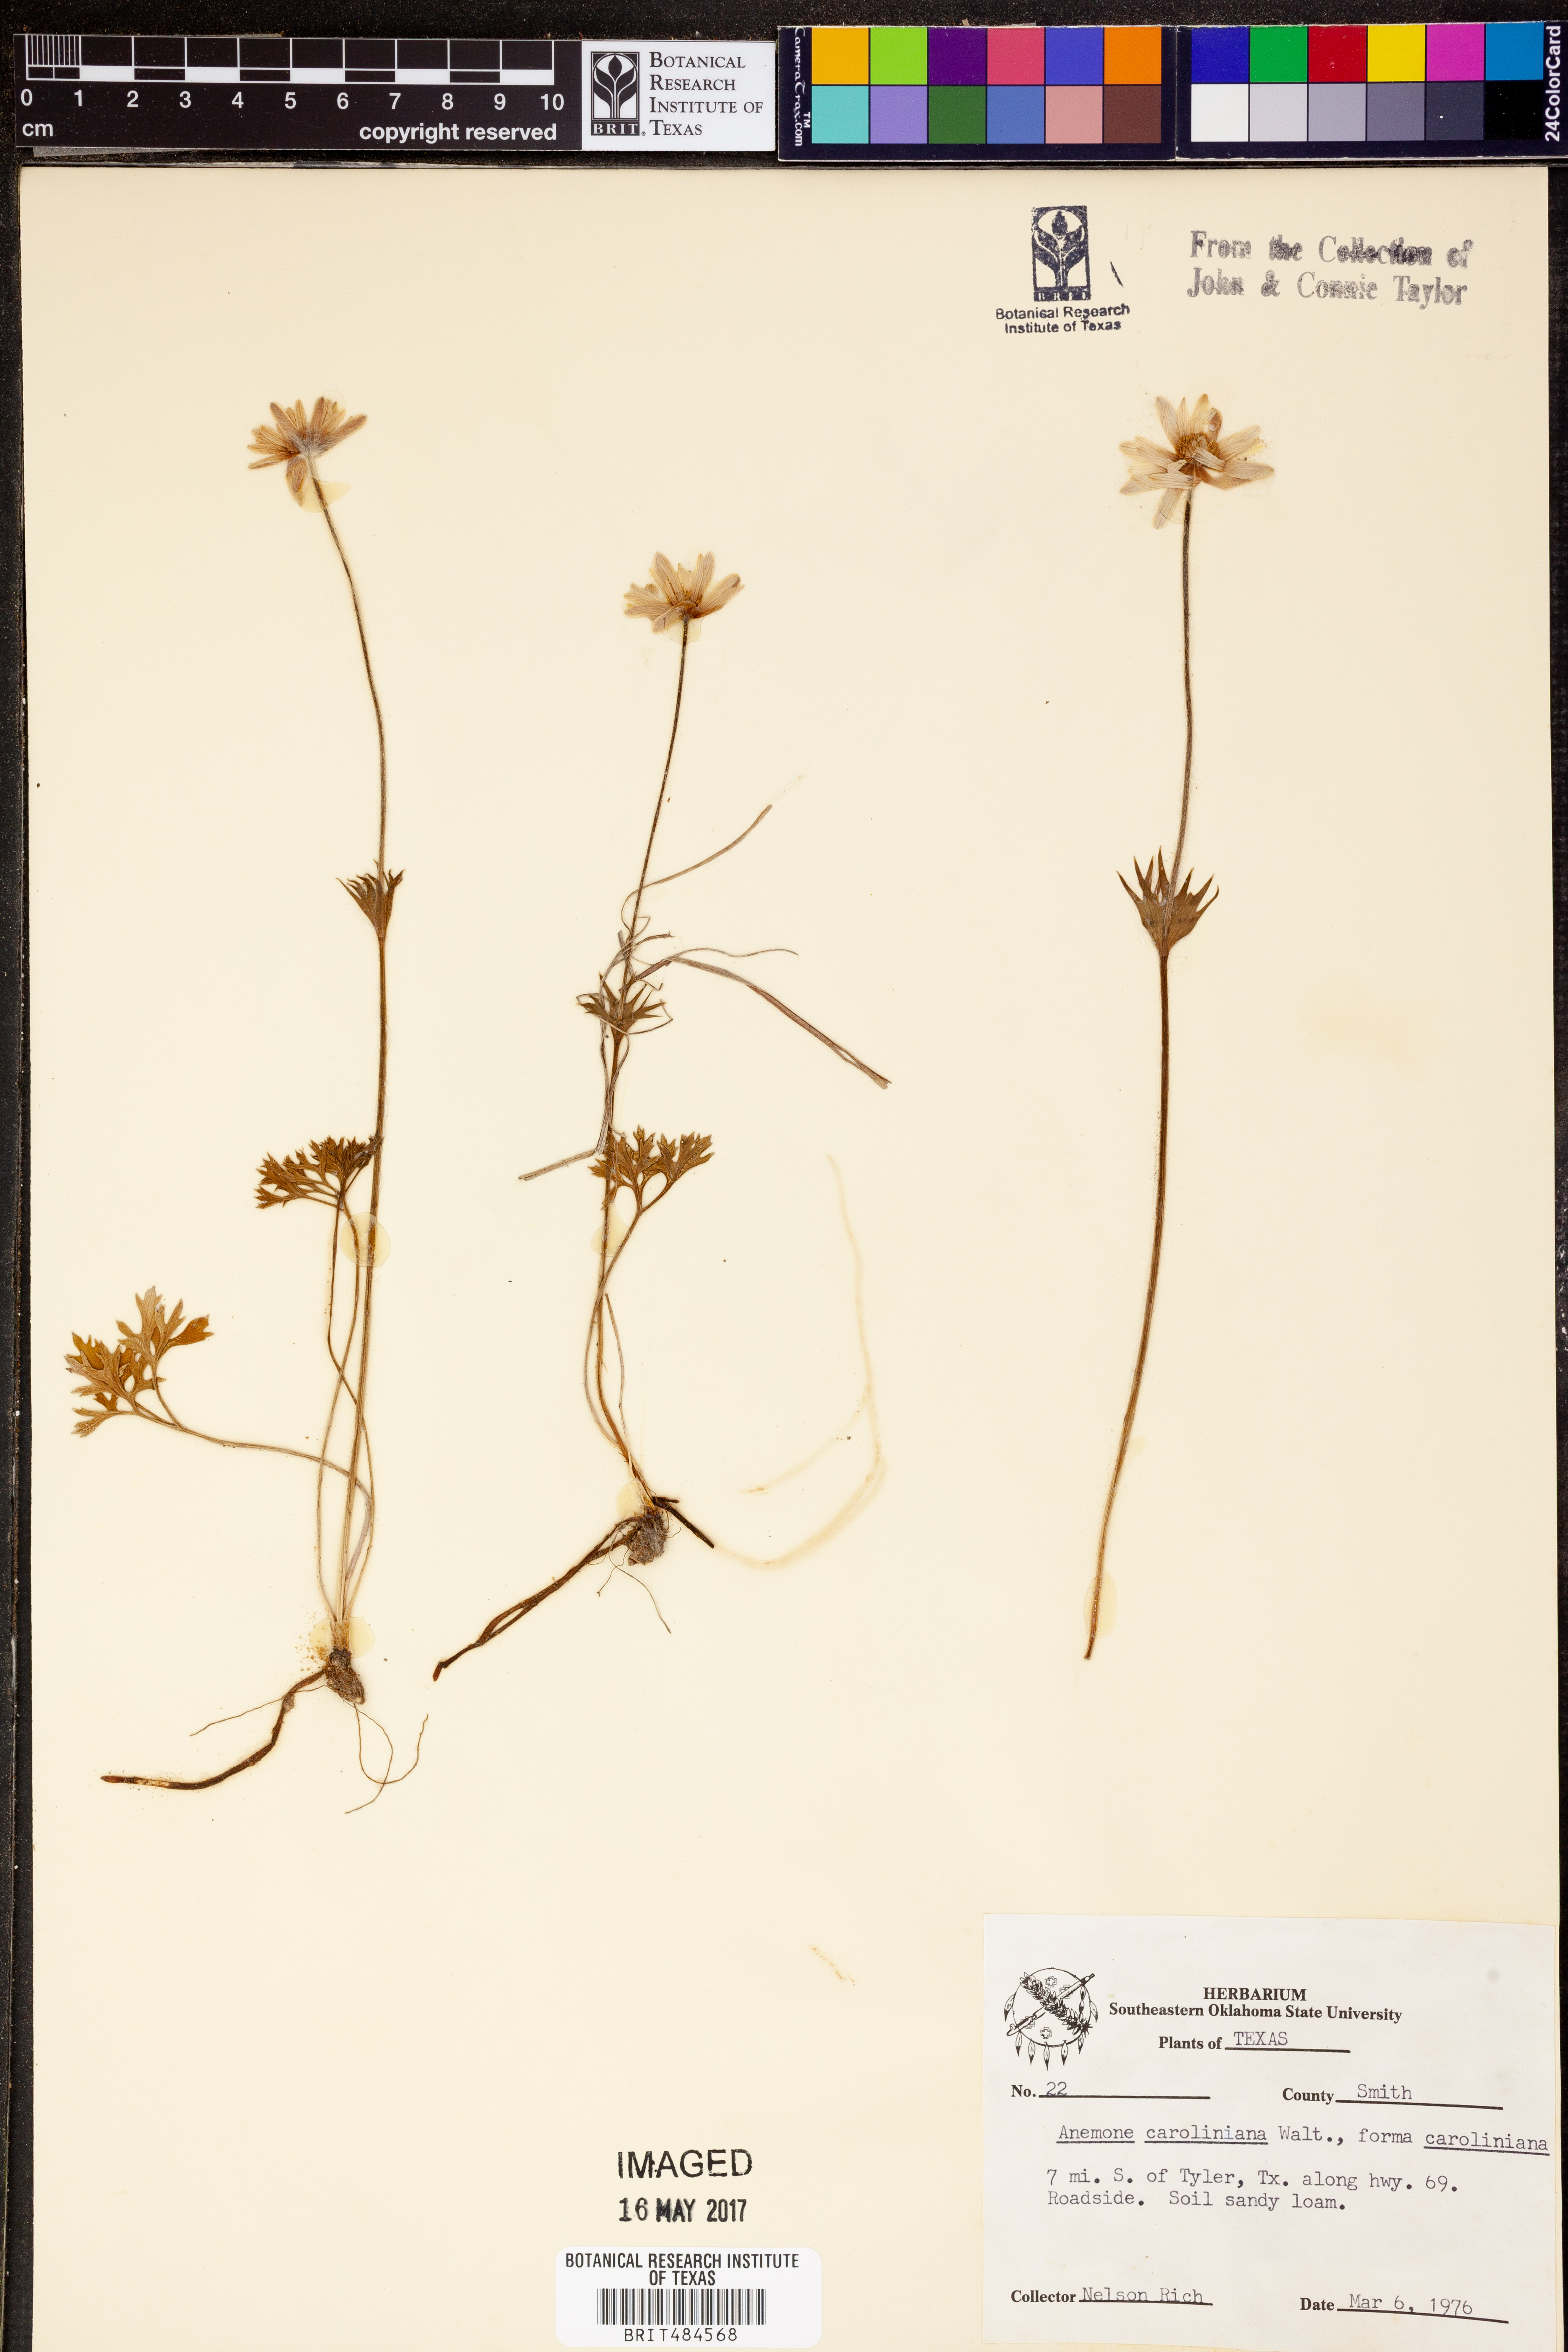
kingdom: Plantae
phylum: Tracheophyta
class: Magnoliopsida
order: Ranunculales
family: Ranunculaceae
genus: Anemone
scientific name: Anemone caroliniana
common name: Carolina anemone
